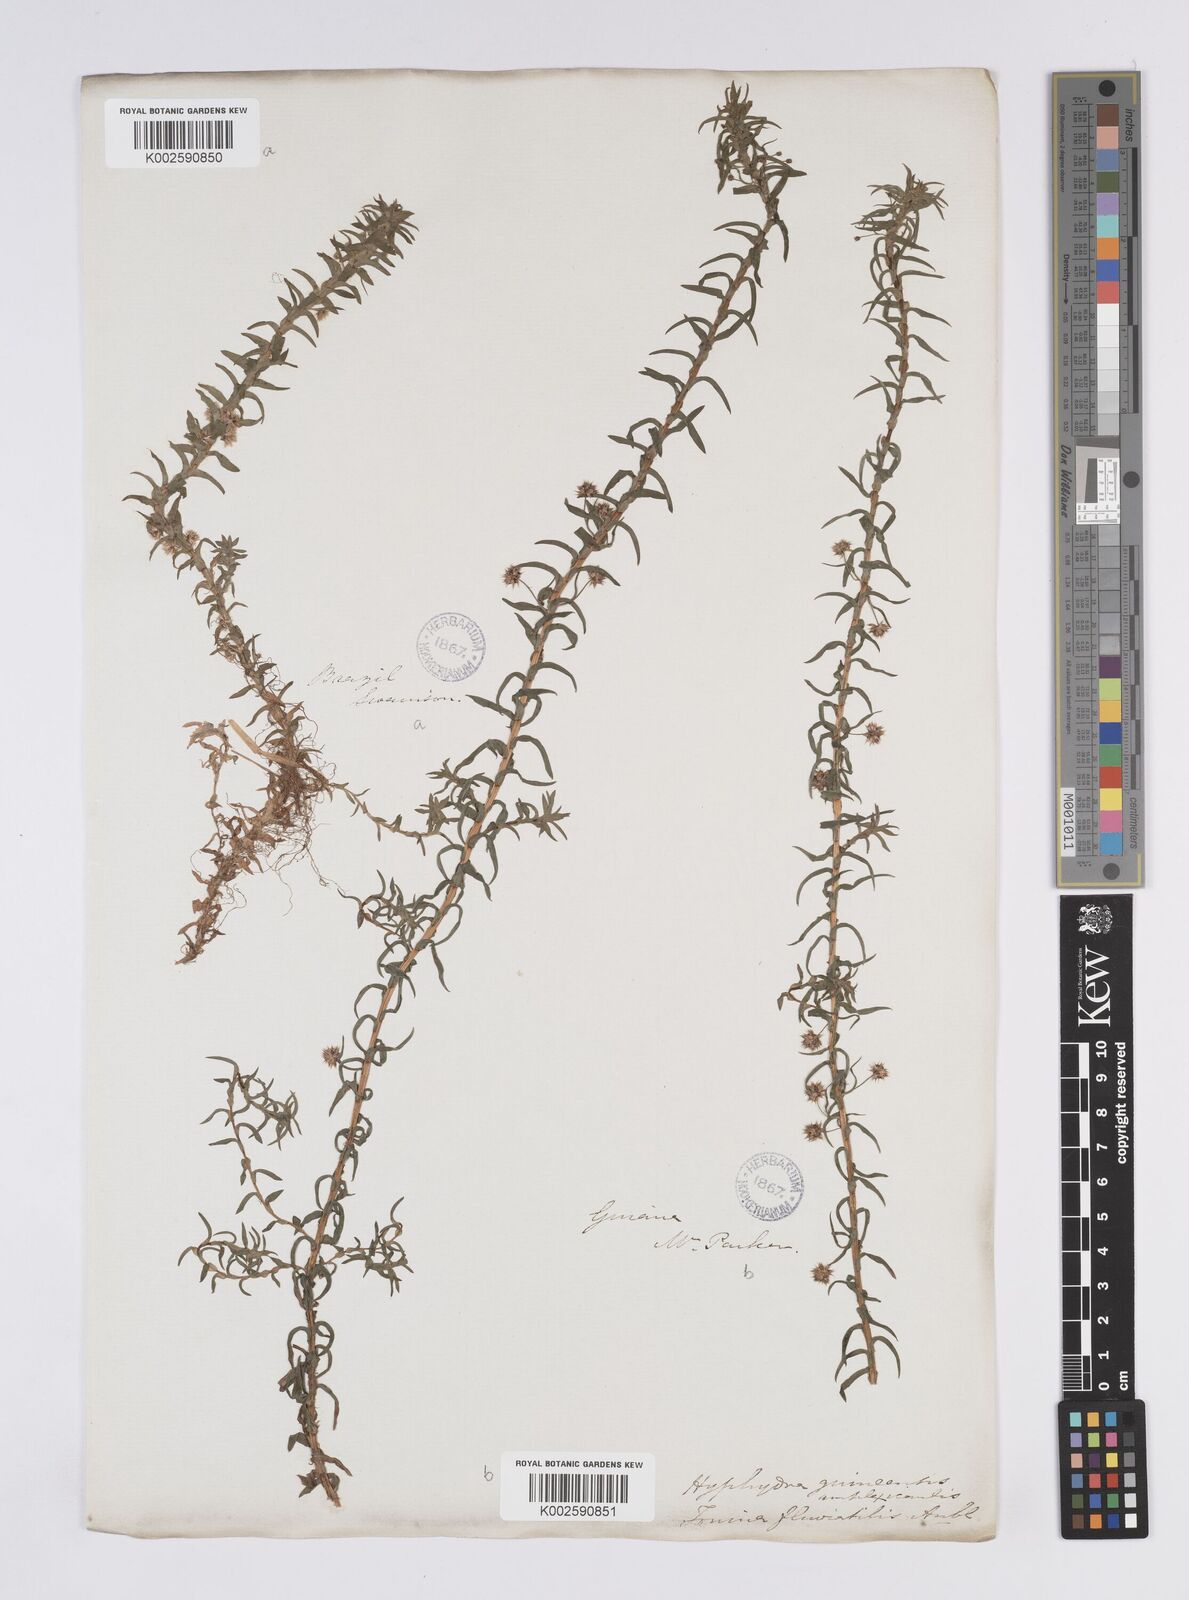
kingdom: Plantae
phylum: Tracheophyta
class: Liliopsida
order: Poales
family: Eriocaulaceae
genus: Paepalanthus
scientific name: Paepalanthus fluviatilis
